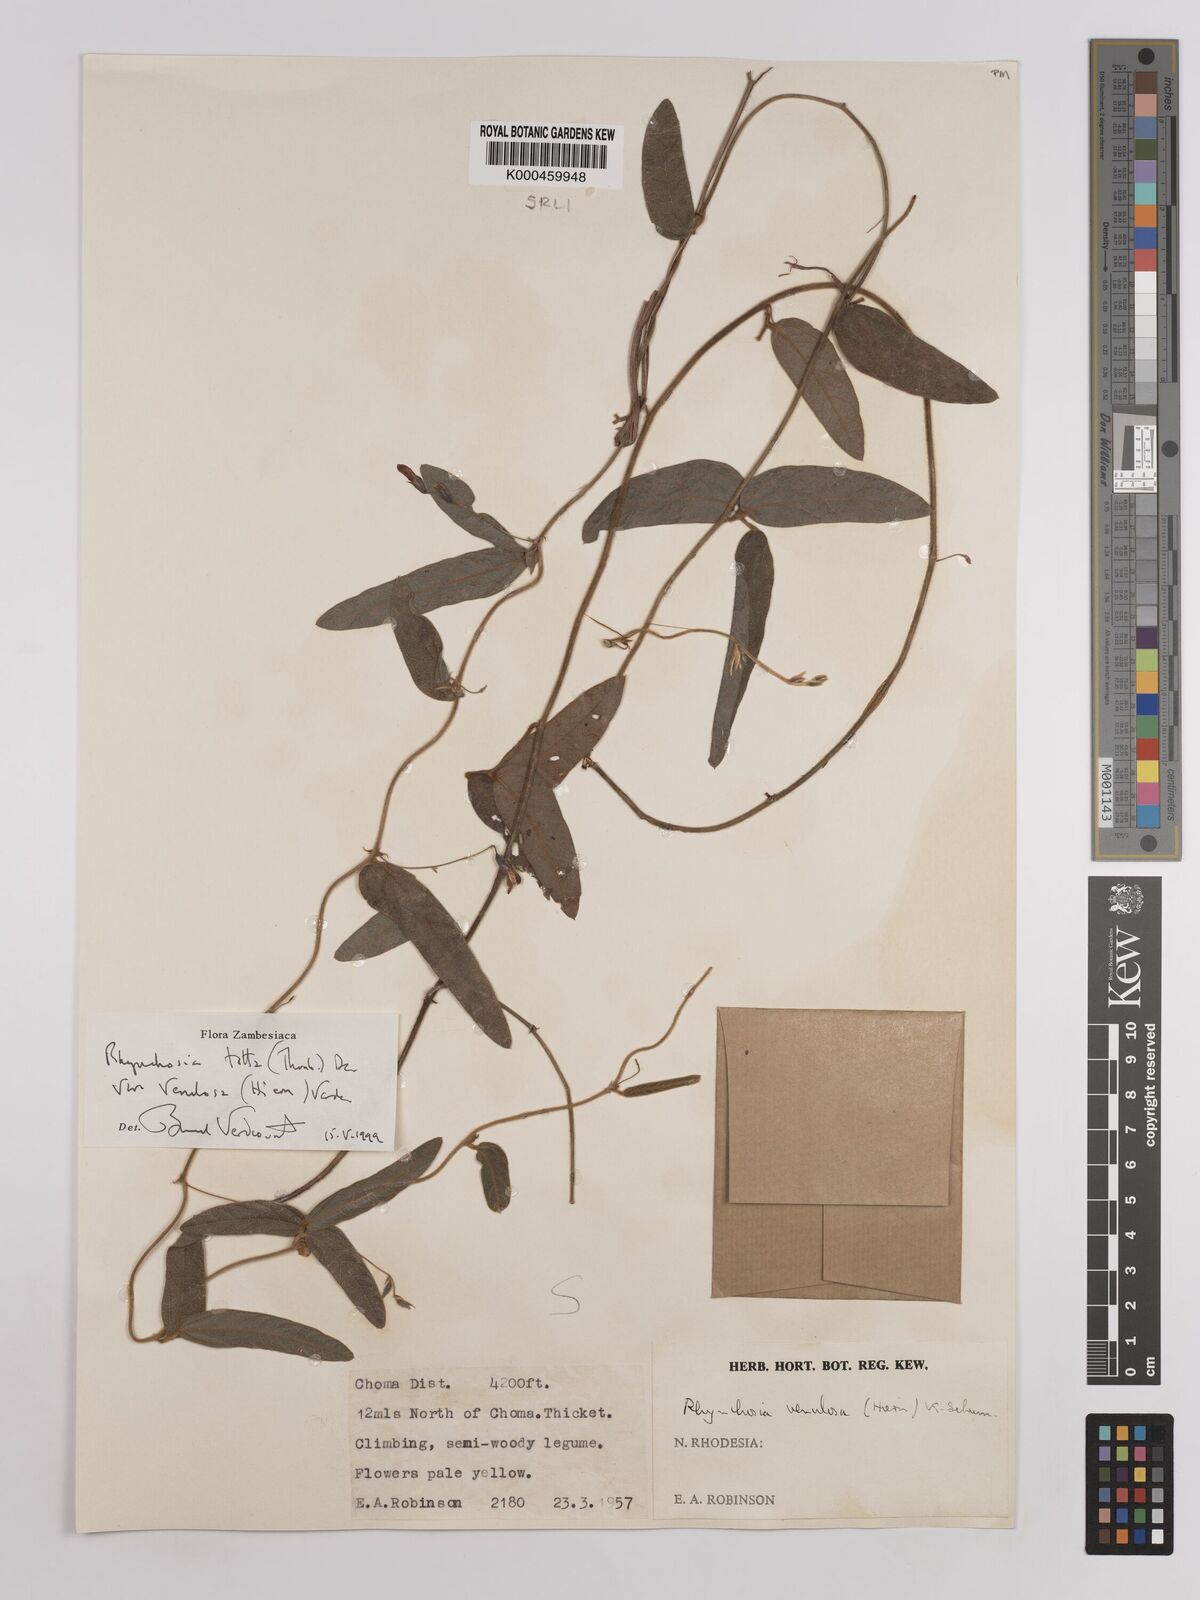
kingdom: Plantae
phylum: Tracheophyta
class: Magnoliopsida
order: Fabales
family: Fabaceae
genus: Rhynchosia
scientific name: Rhynchosia totta
